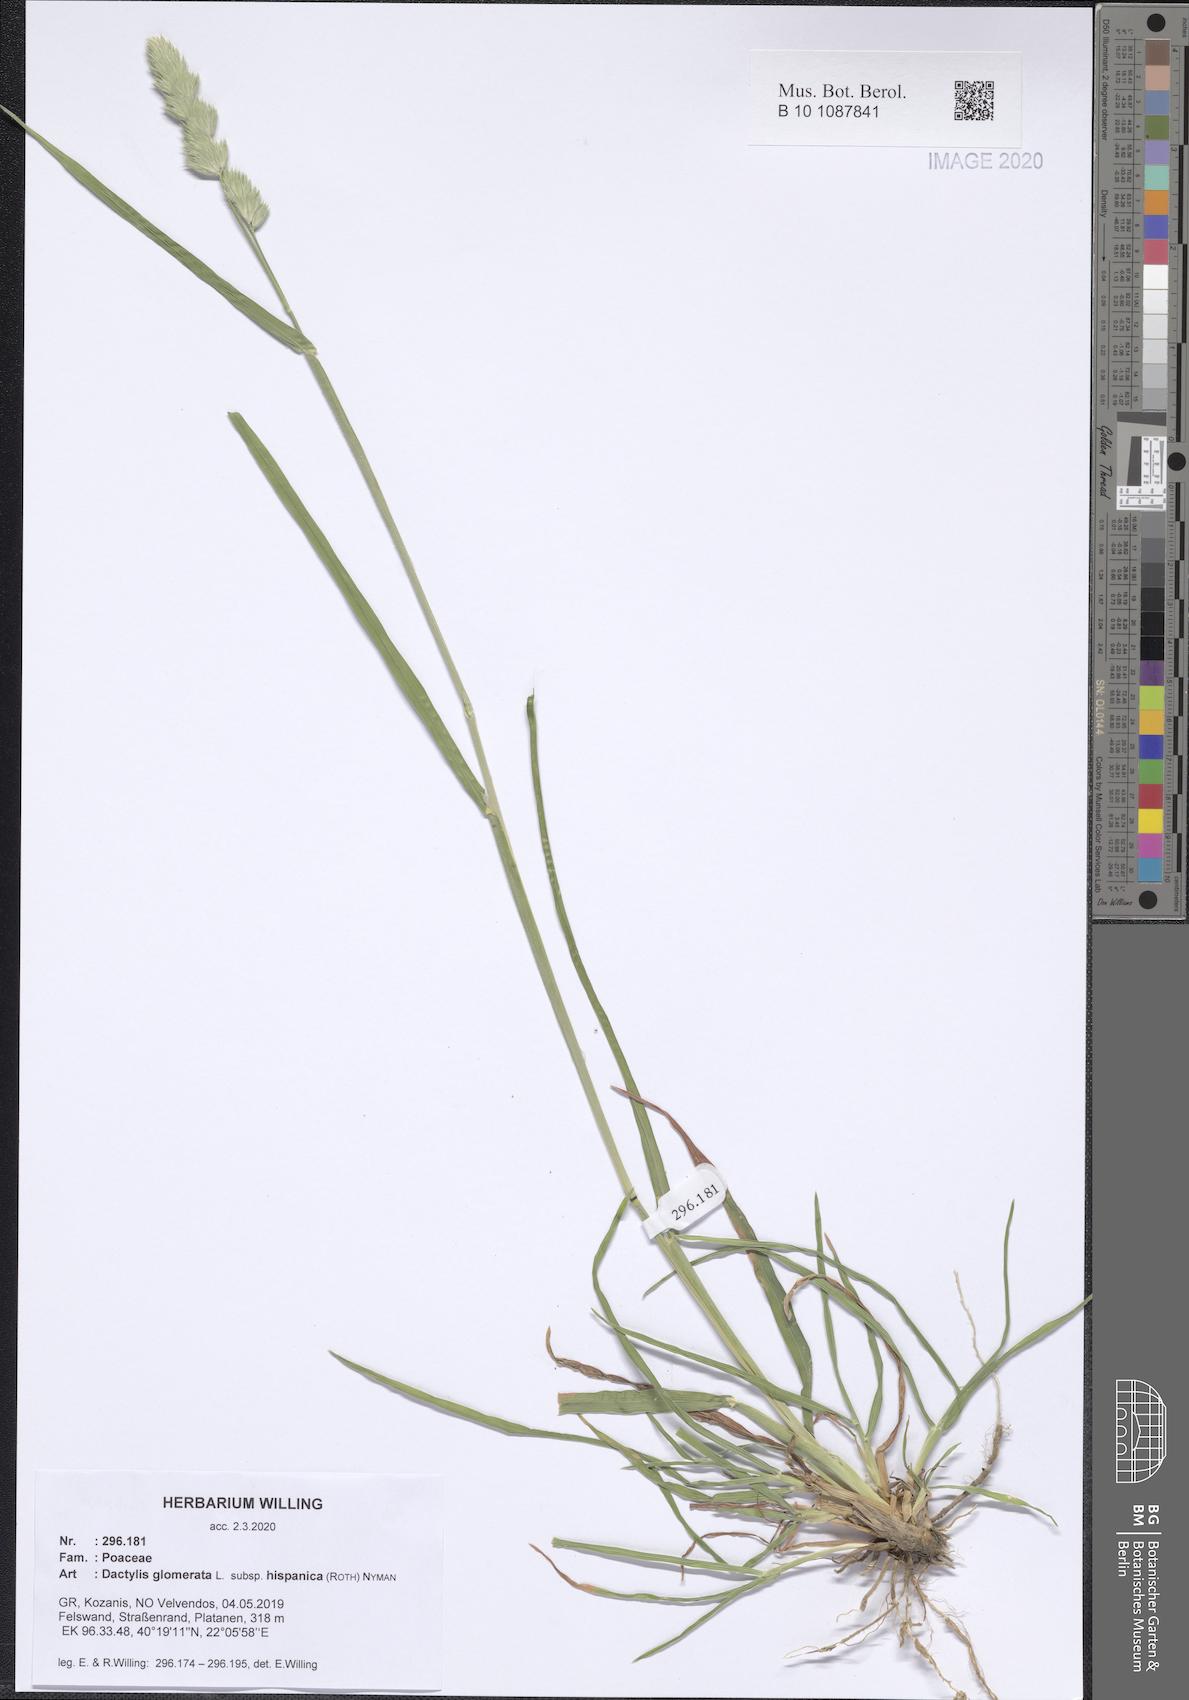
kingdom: Plantae
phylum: Tracheophyta
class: Liliopsida
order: Poales
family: Poaceae
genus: Dactylis
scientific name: Dactylis glomerata
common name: Orchardgrass
